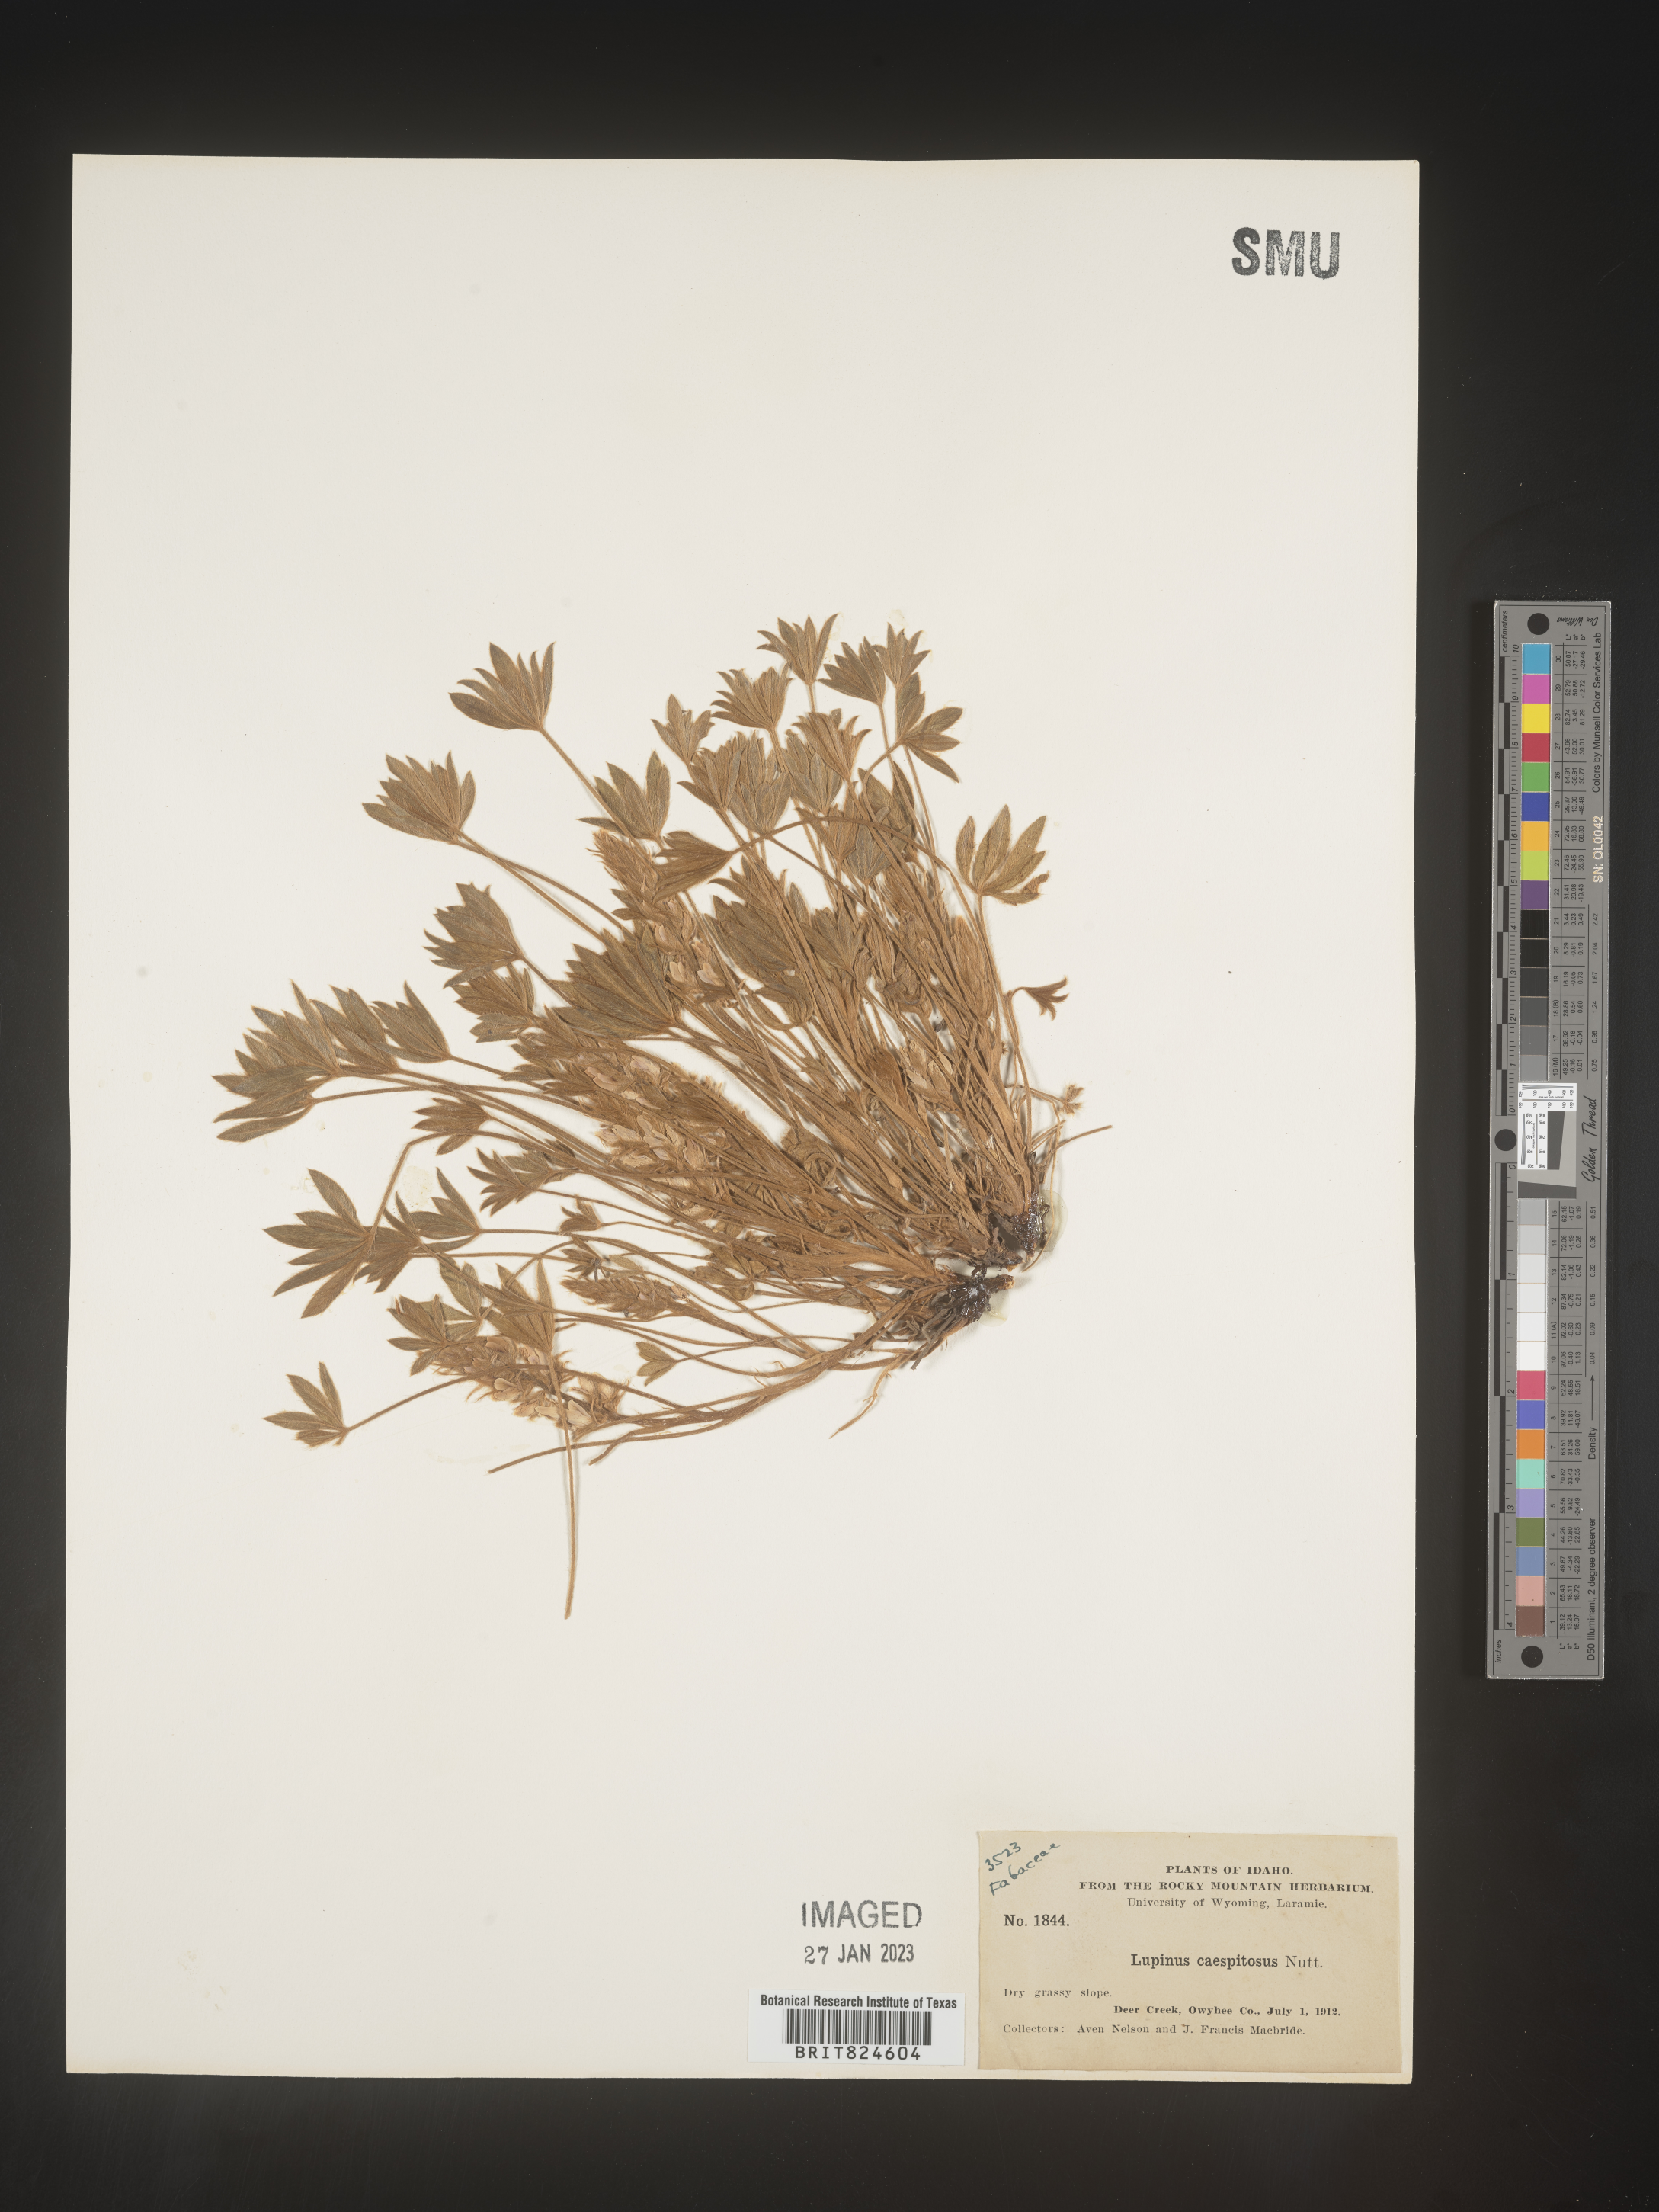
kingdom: Plantae
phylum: Tracheophyta
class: Magnoliopsida
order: Fabales
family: Fabaceae
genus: Lupinus
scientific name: Lupinus caespitosus
